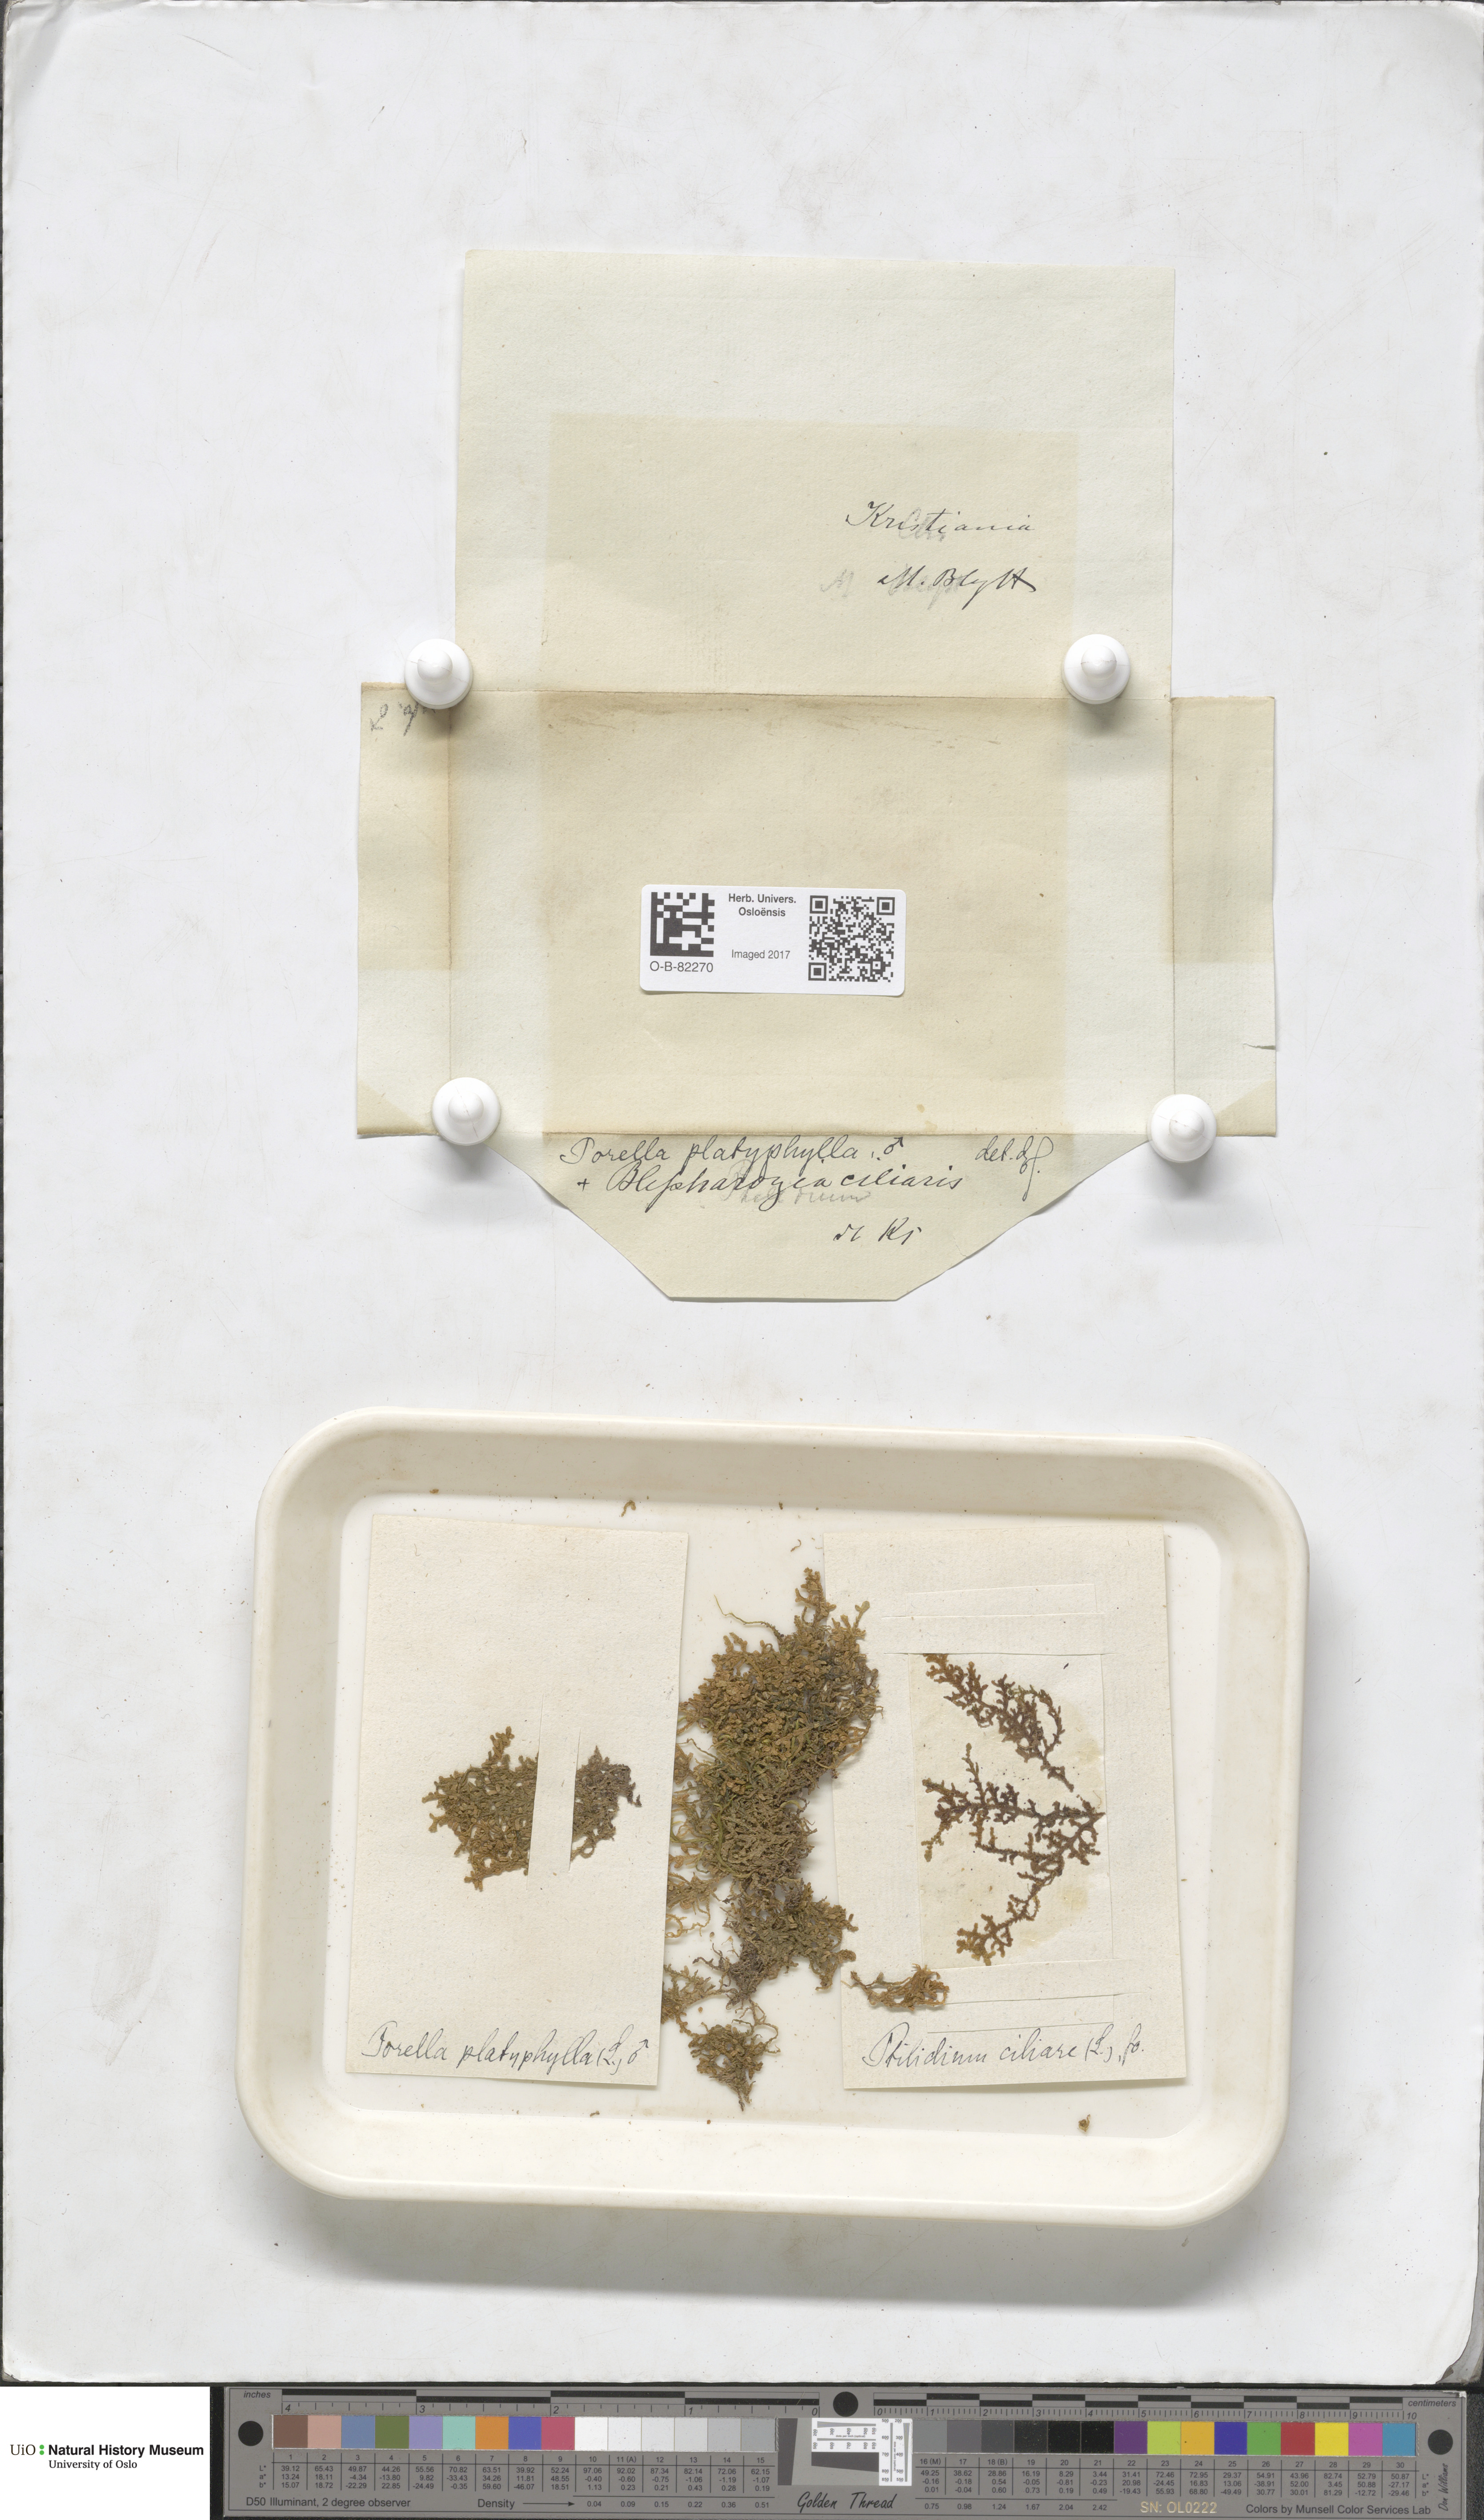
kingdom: Plantae
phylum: Marchantiophyta
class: Jungermanniopsida
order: Porellales
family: Porellaceae
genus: Porella
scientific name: Porella platyphylla
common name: Wall scalewort
